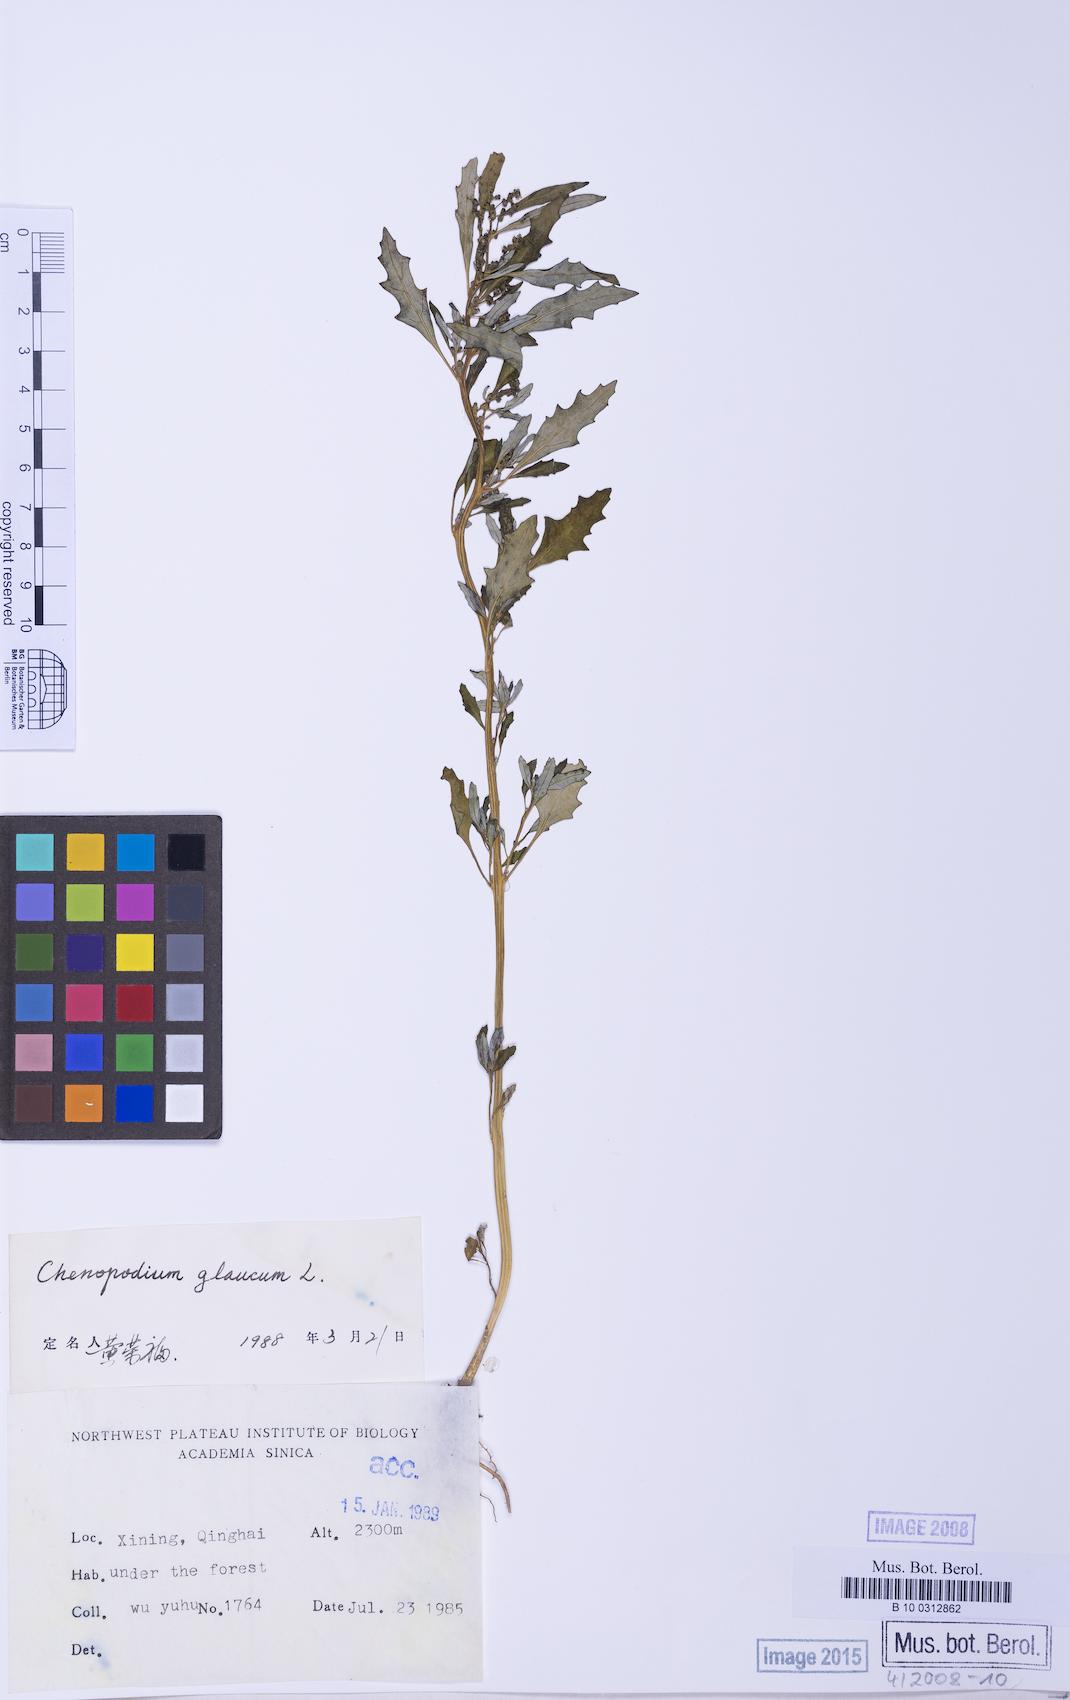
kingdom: Plantae
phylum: Tracheophyta
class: Magnoliopsida
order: Caryophyllales
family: Amaranthaceae
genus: Oxybasis
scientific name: Oxybasis glauca
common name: Glaucous goosefoot
